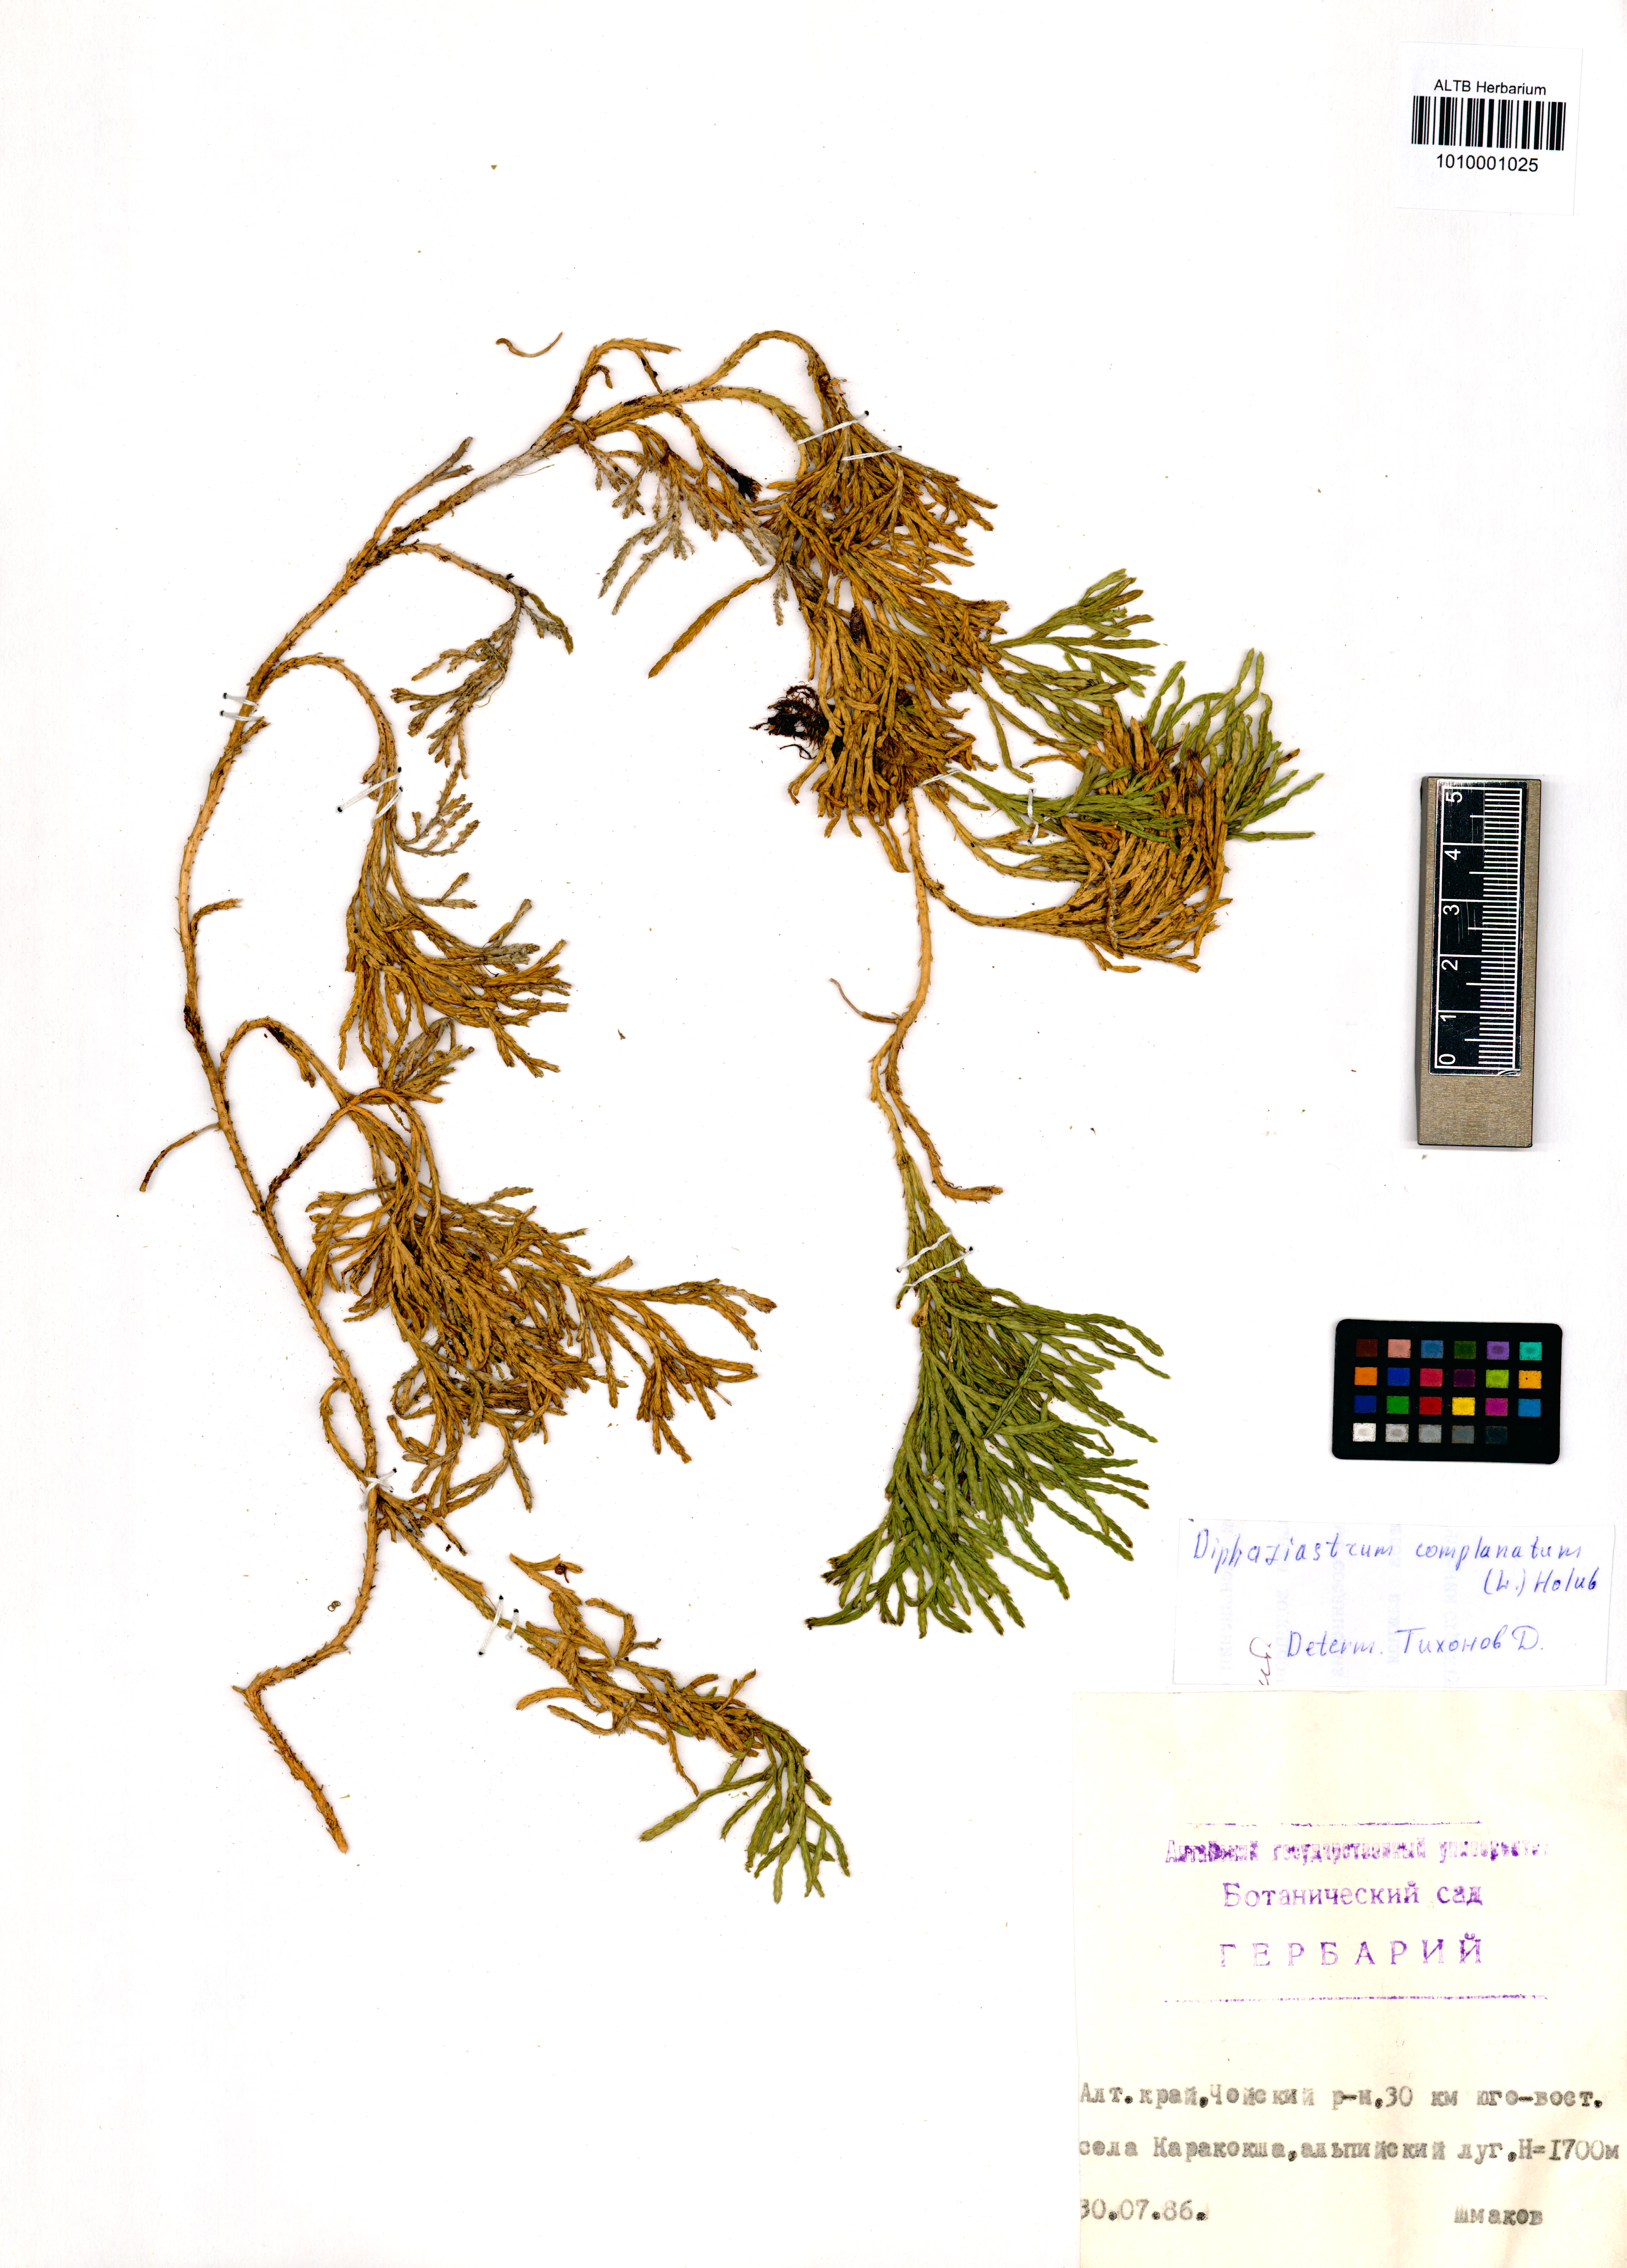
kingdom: Plantae
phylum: Tracheophyta
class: Lycopodiopsida
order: Lycopodiales
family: Lycopodiaceae
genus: Diphasiastrum
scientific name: Diphasiastrum complanatum
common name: Northern running-pine
